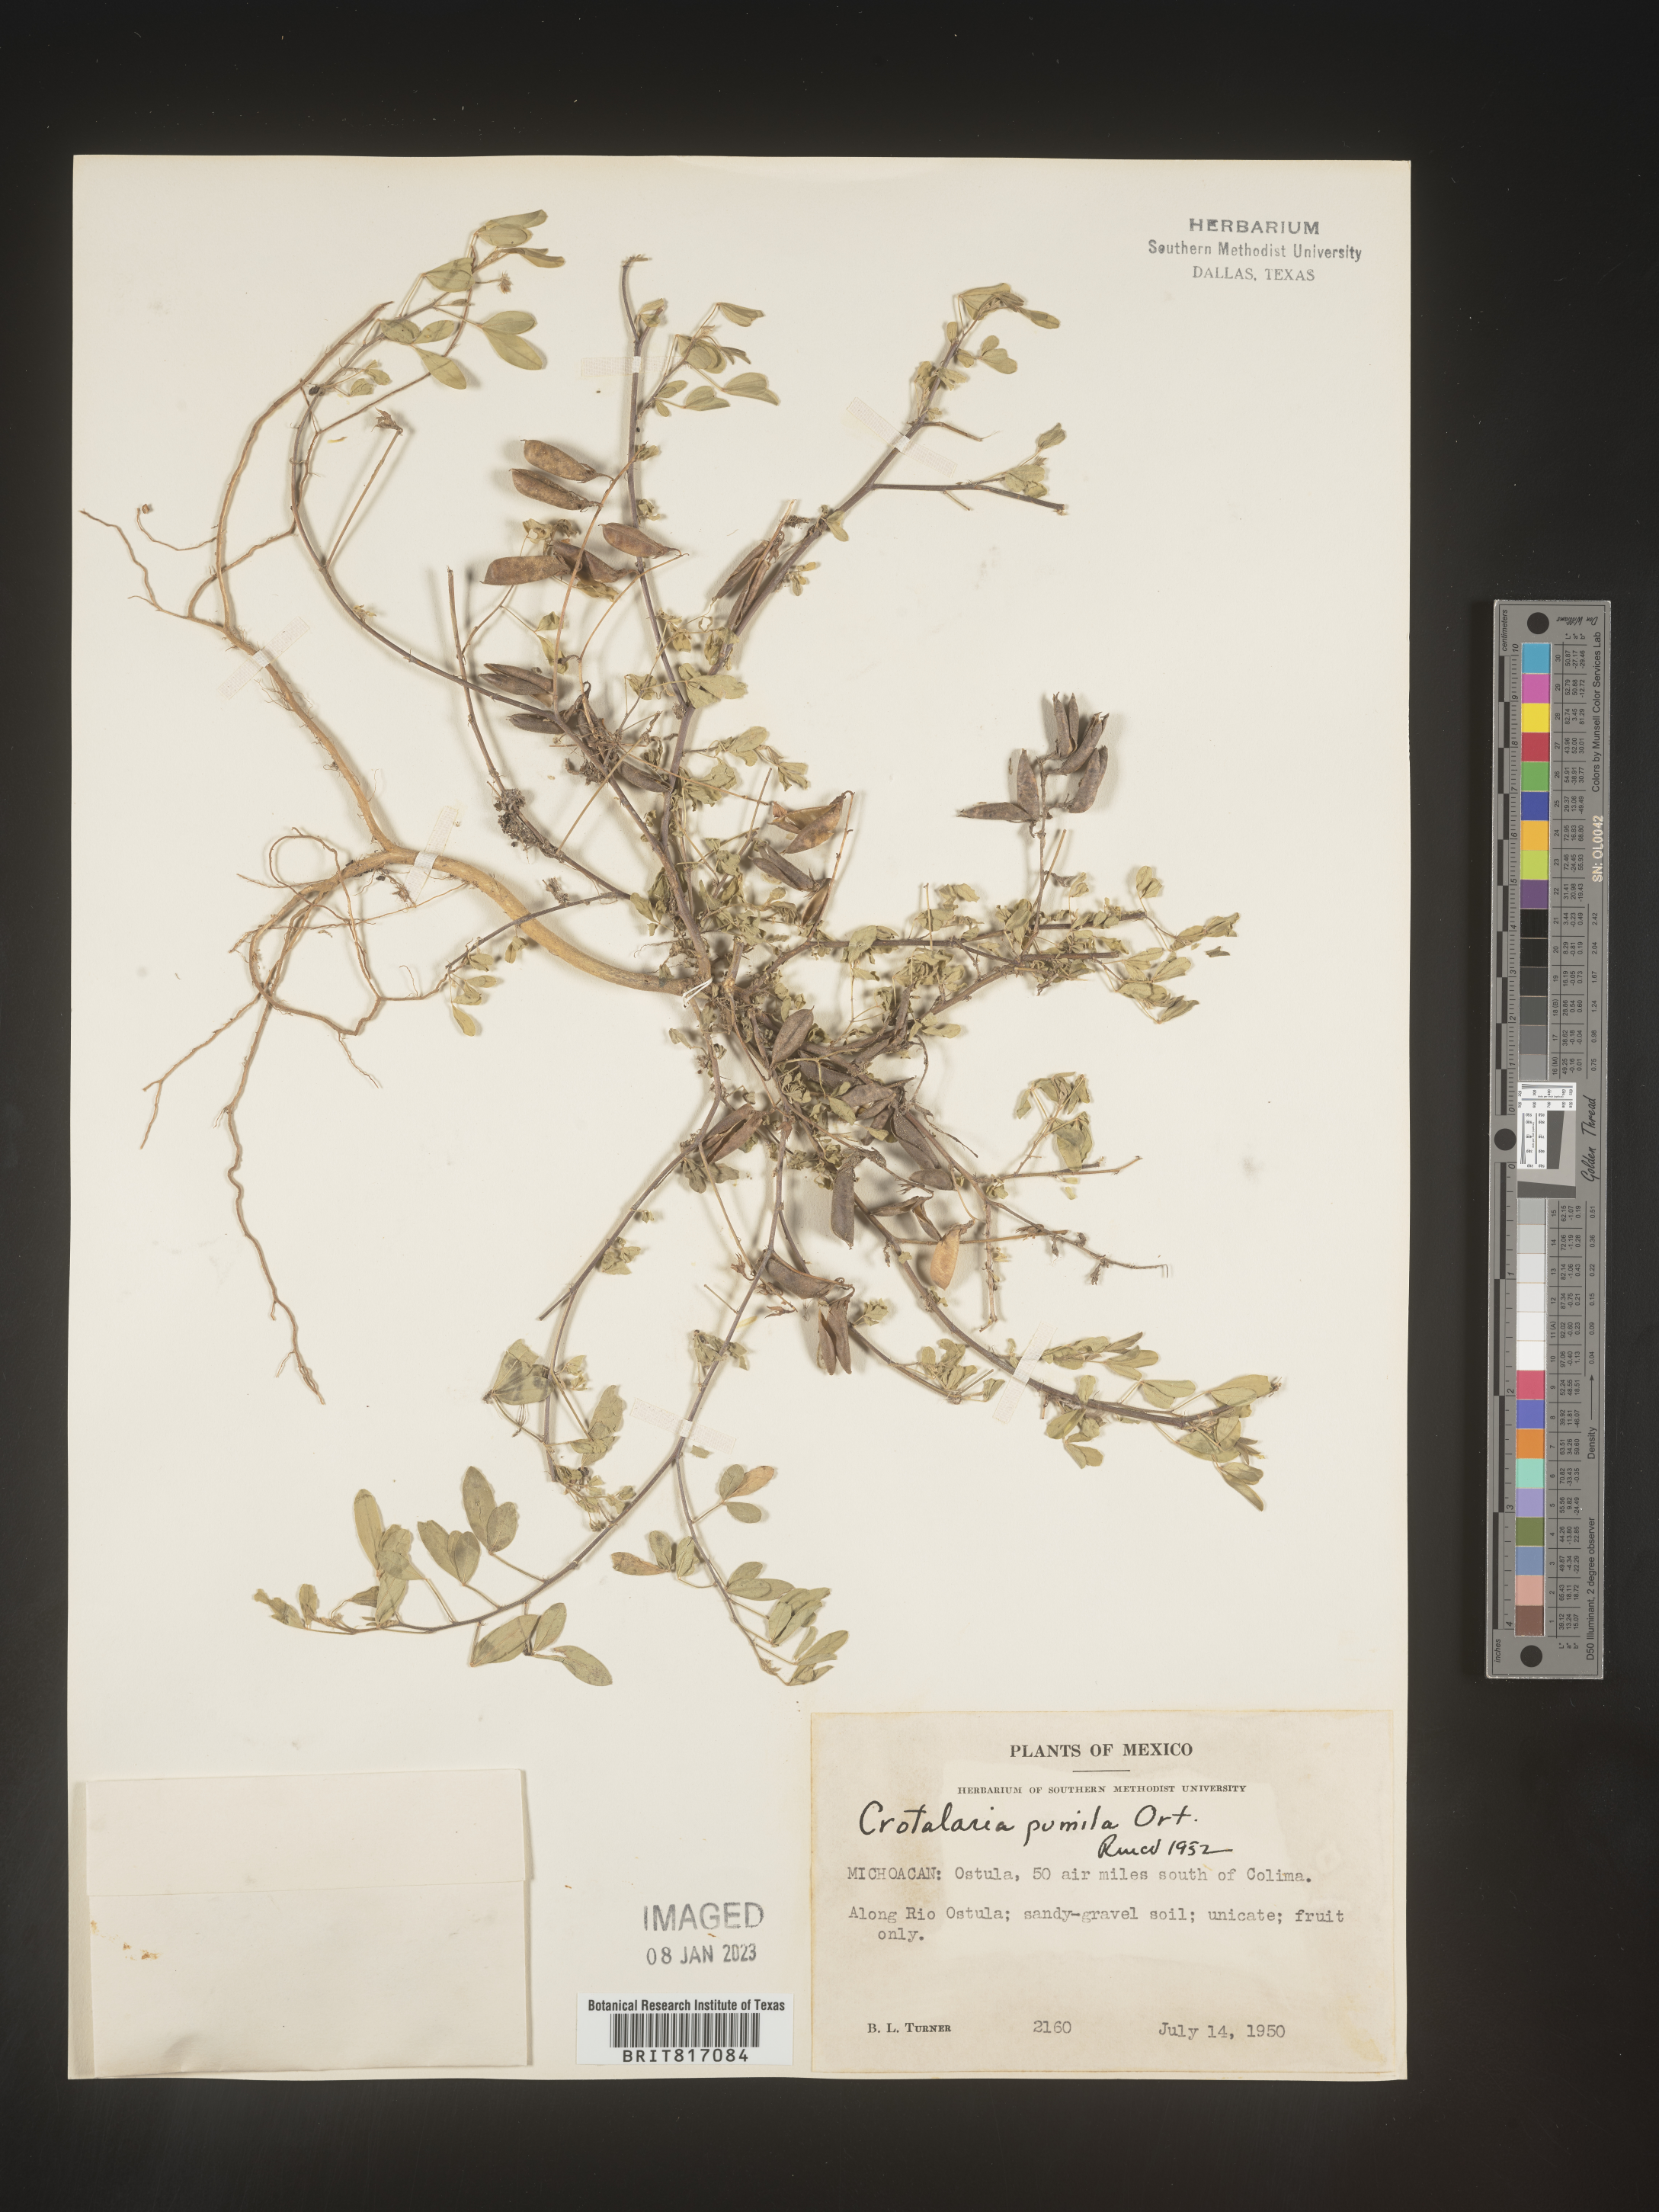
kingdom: Plantae
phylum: Tracheophyta
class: Magnoliopsida
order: Fabales
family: Fabaceae
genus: Crotalaria
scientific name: Crotalaria
